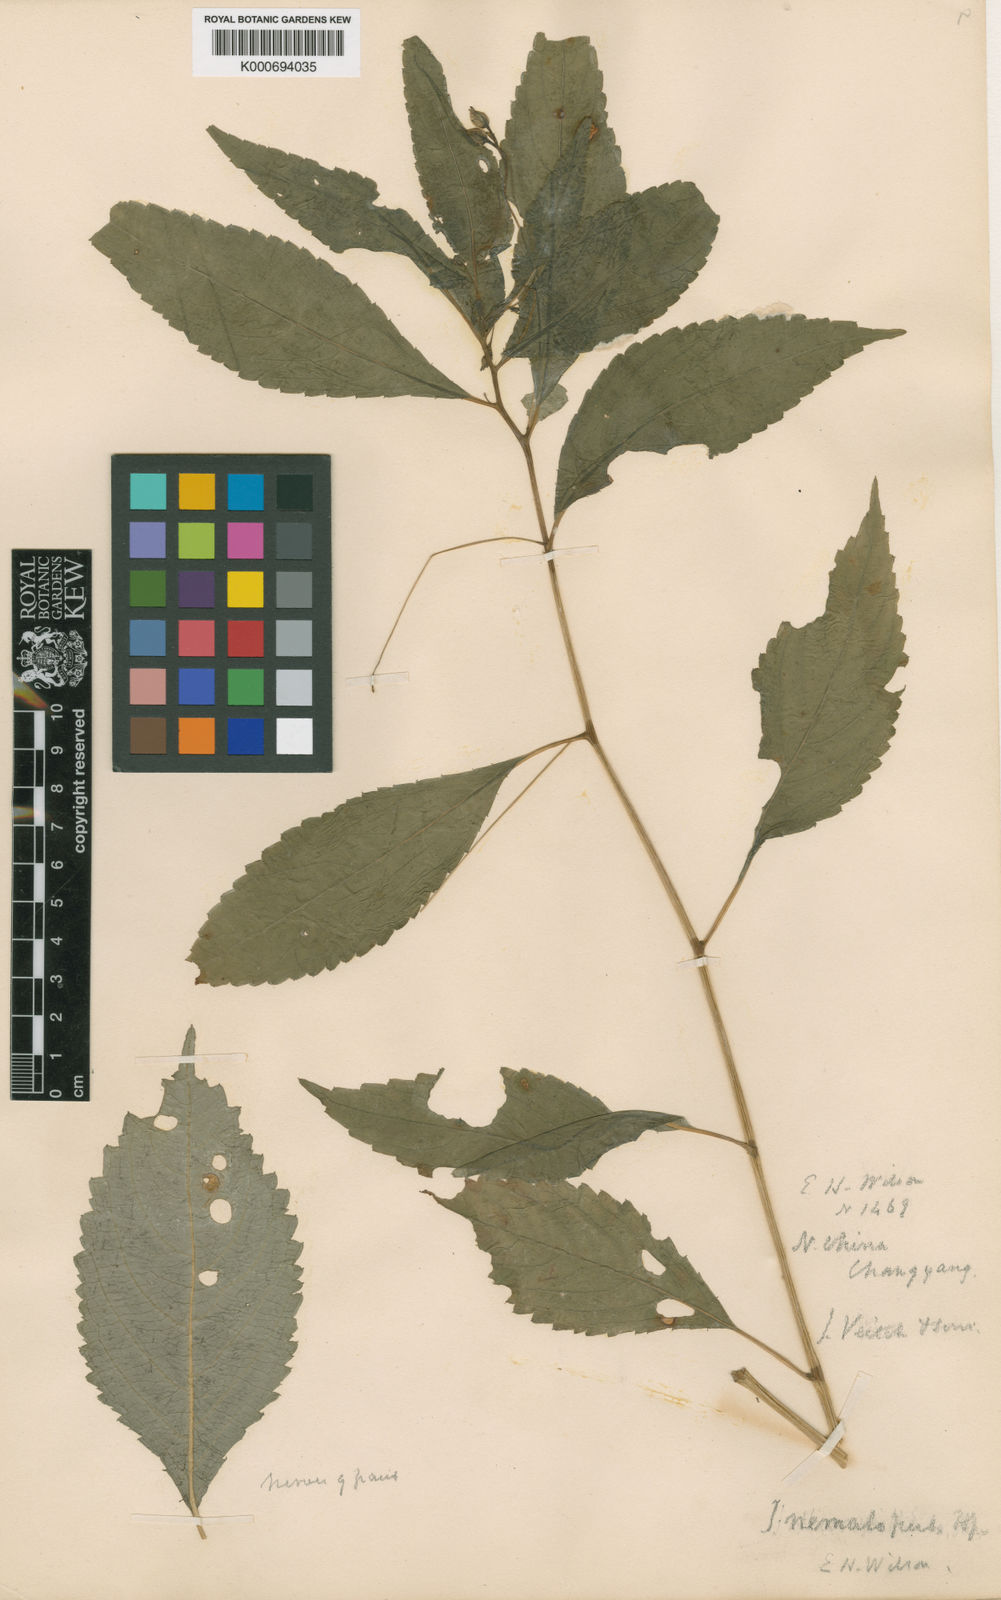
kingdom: Plantae
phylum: Tracheophyta
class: Magnoliopsida
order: Ericales
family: Balsaminaceae
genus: Impatiens
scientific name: Impatiens
